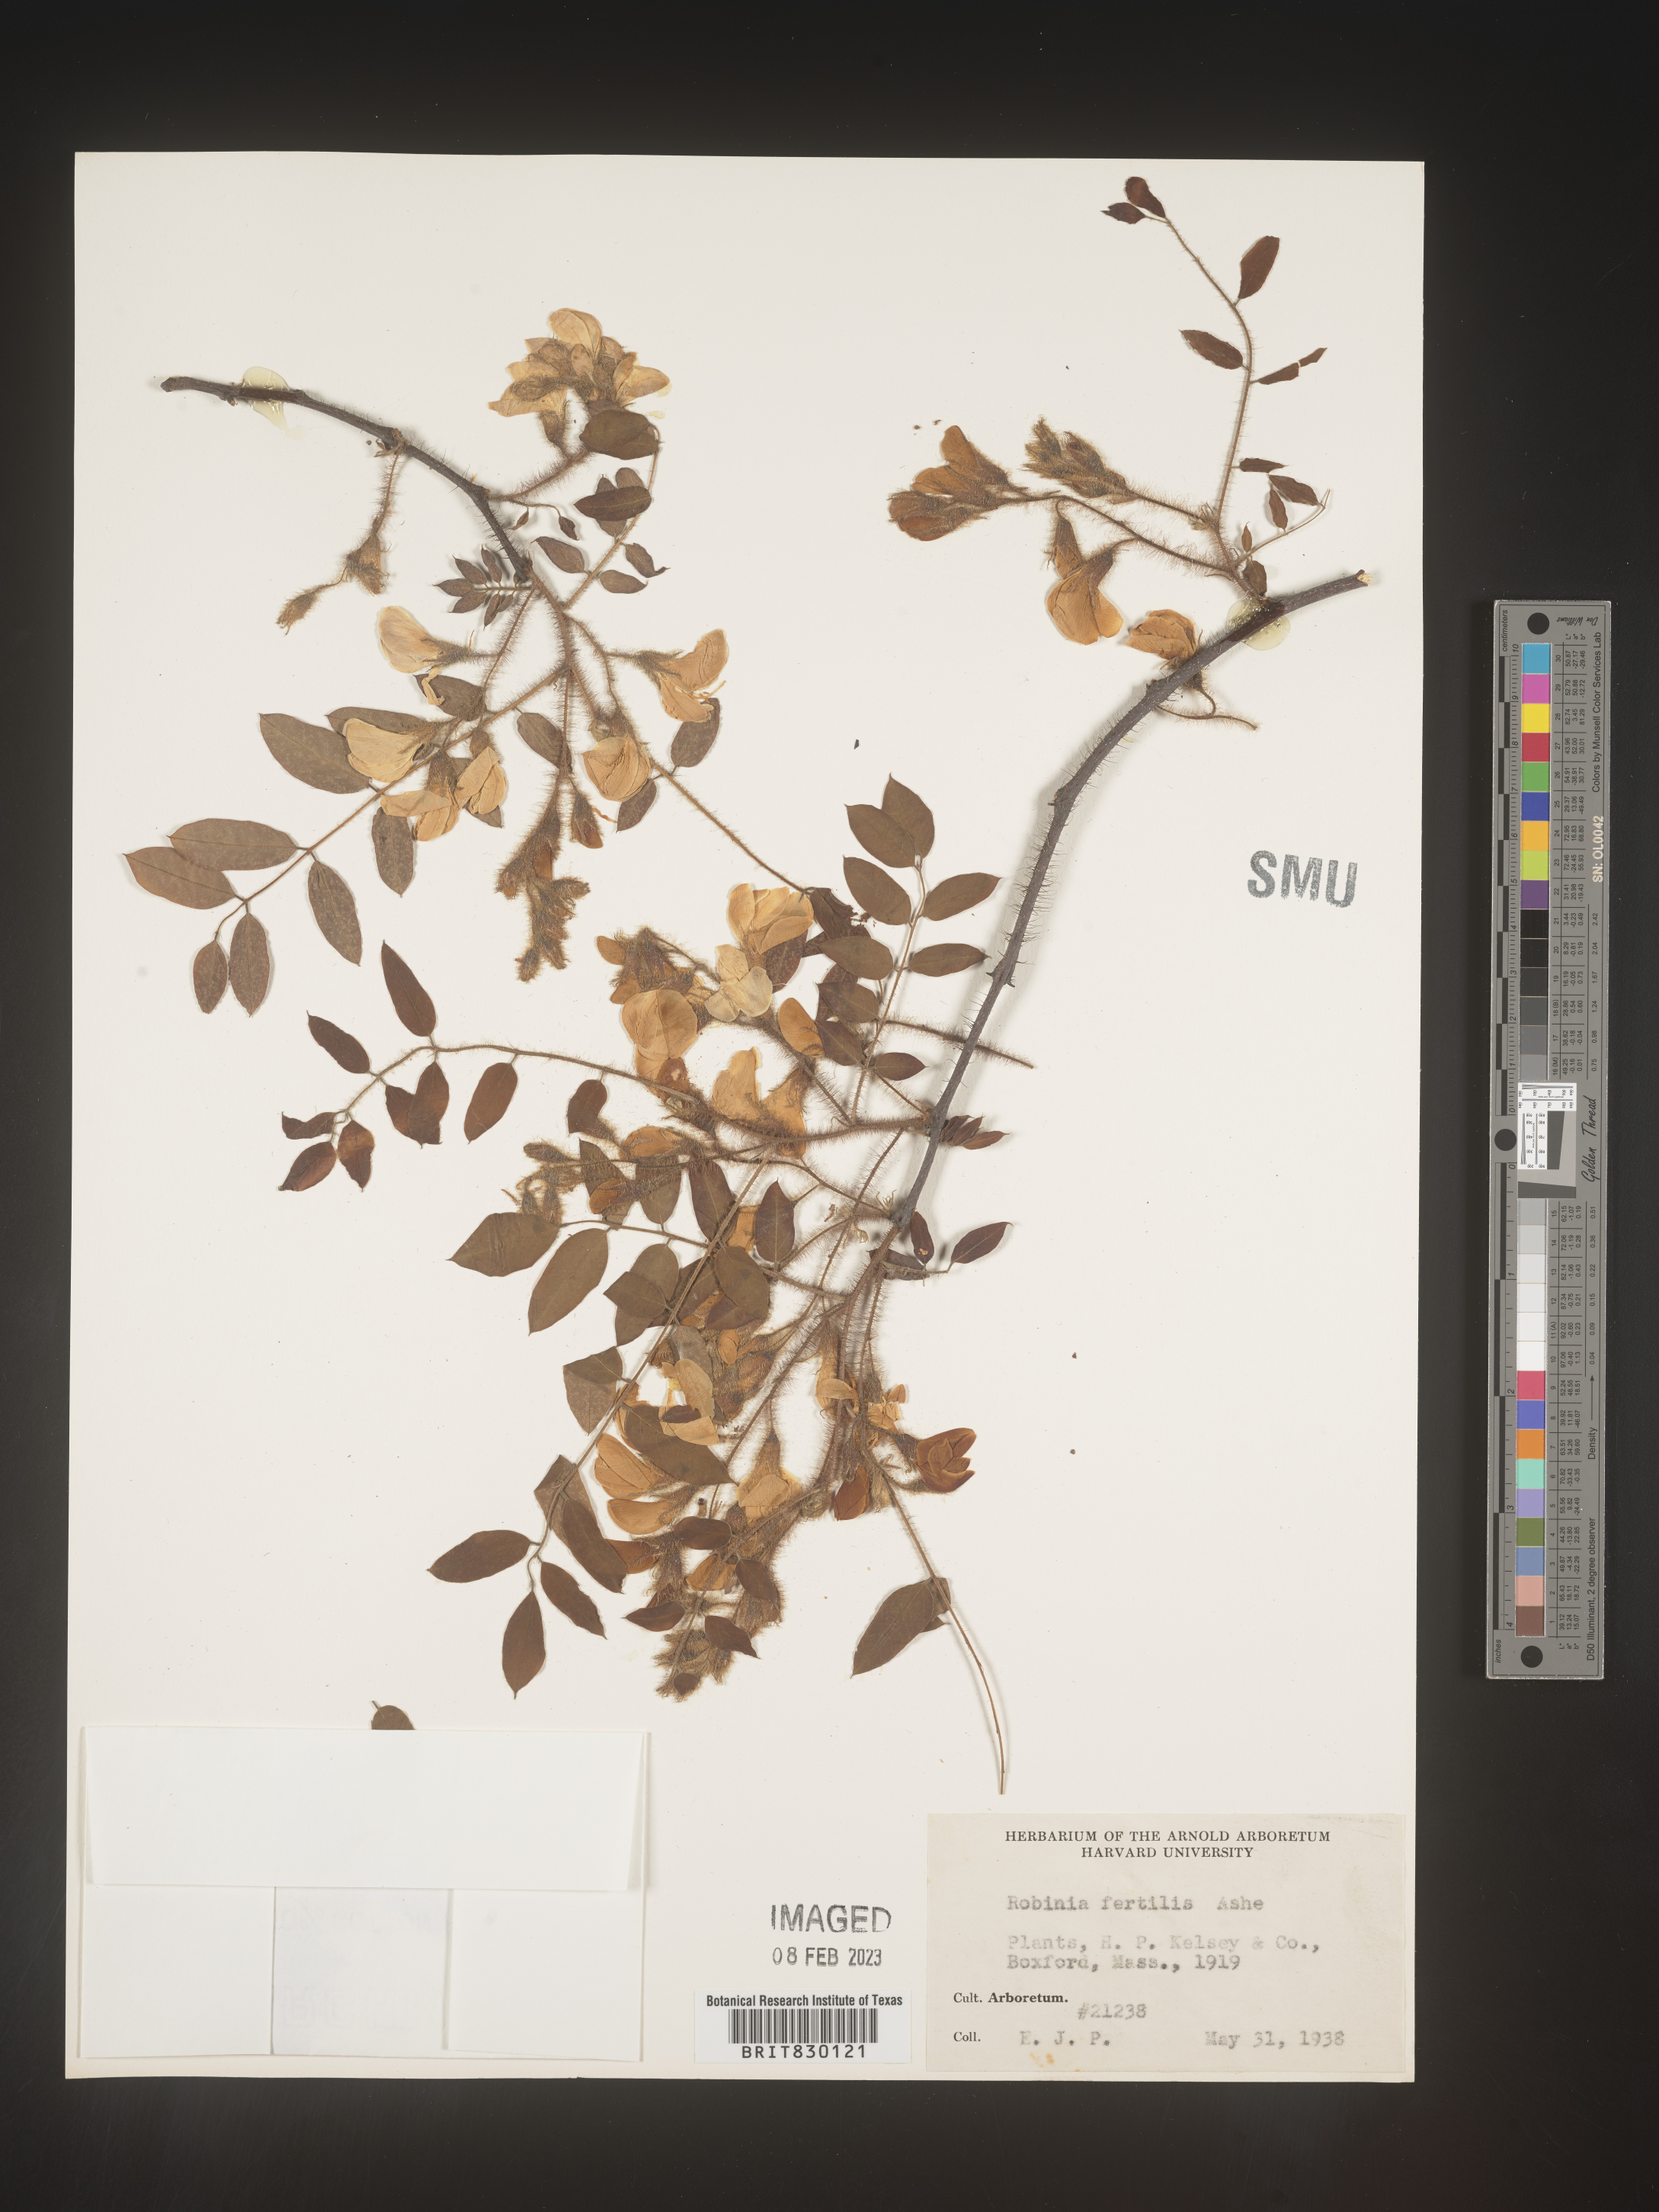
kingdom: Plantae
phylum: Tracheophyta
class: Magnoliopsida
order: Fabales
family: Fabaceae
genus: Robinia
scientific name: Robinia
